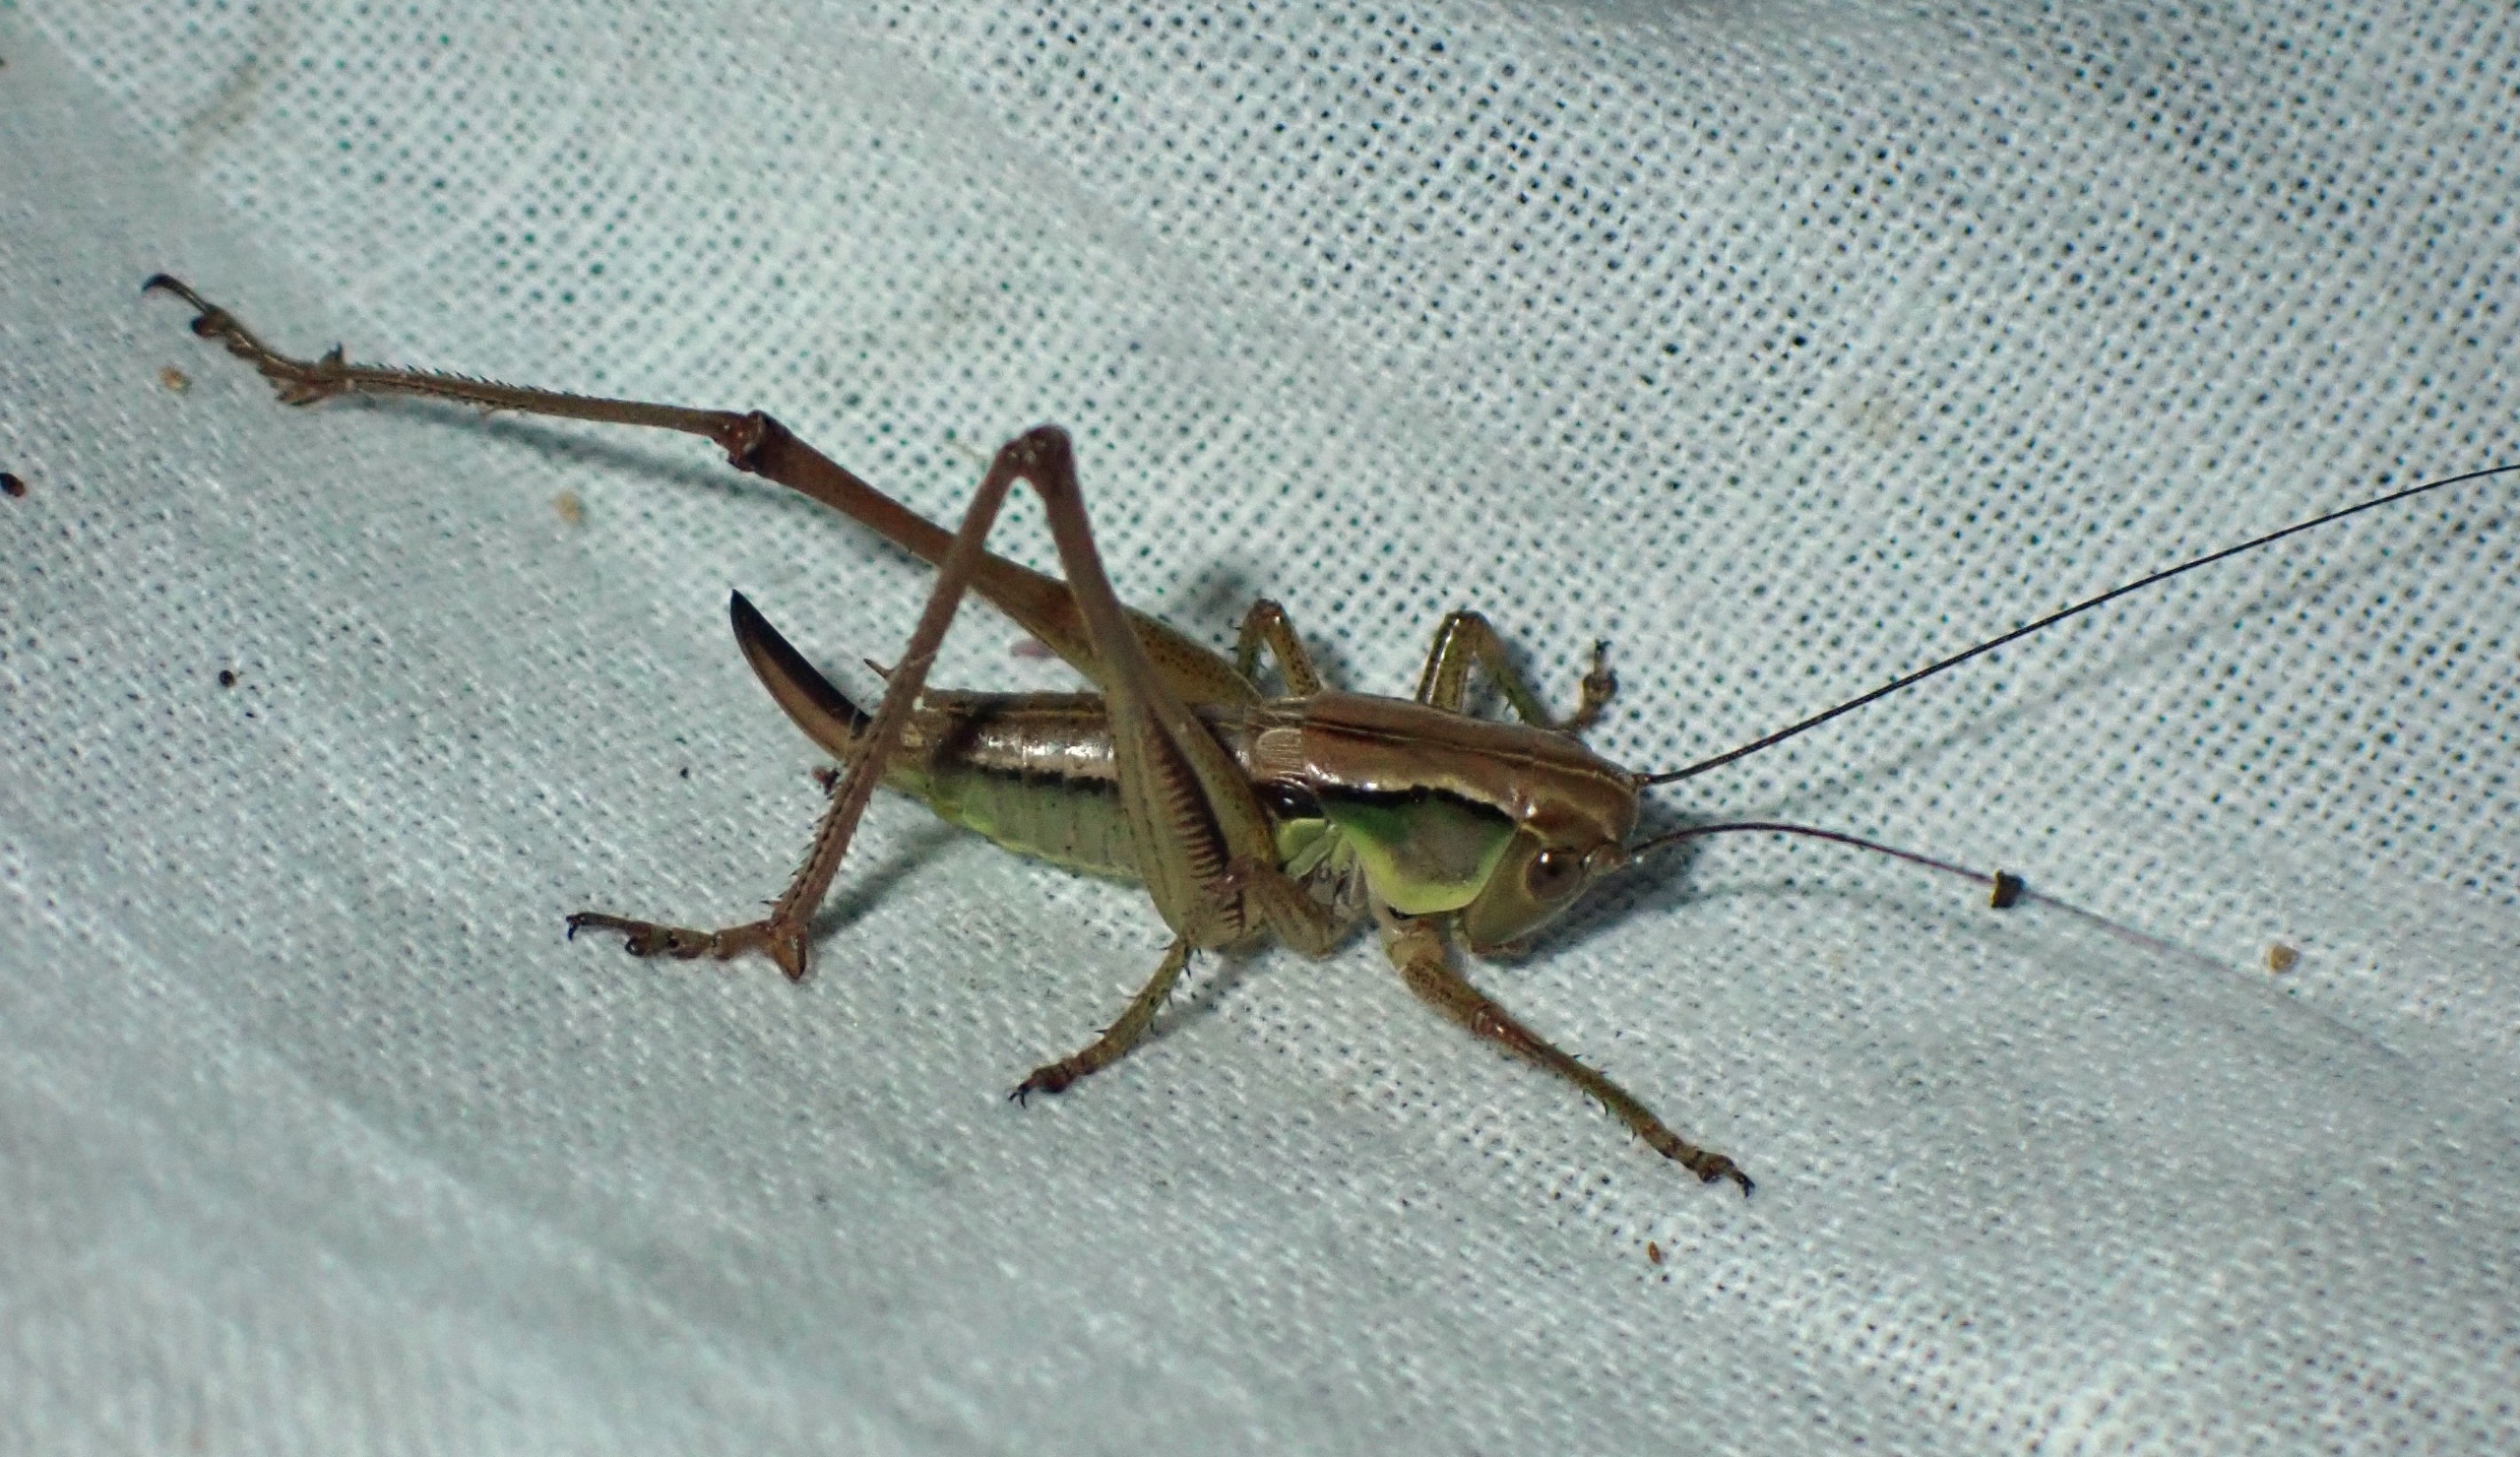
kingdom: Animalia
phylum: Arthropoda
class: Insecta
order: Orthoptera
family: Tettigoniidae
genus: Roeseliana
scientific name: Roeseliana roeselii
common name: Cikadegræshoppe
